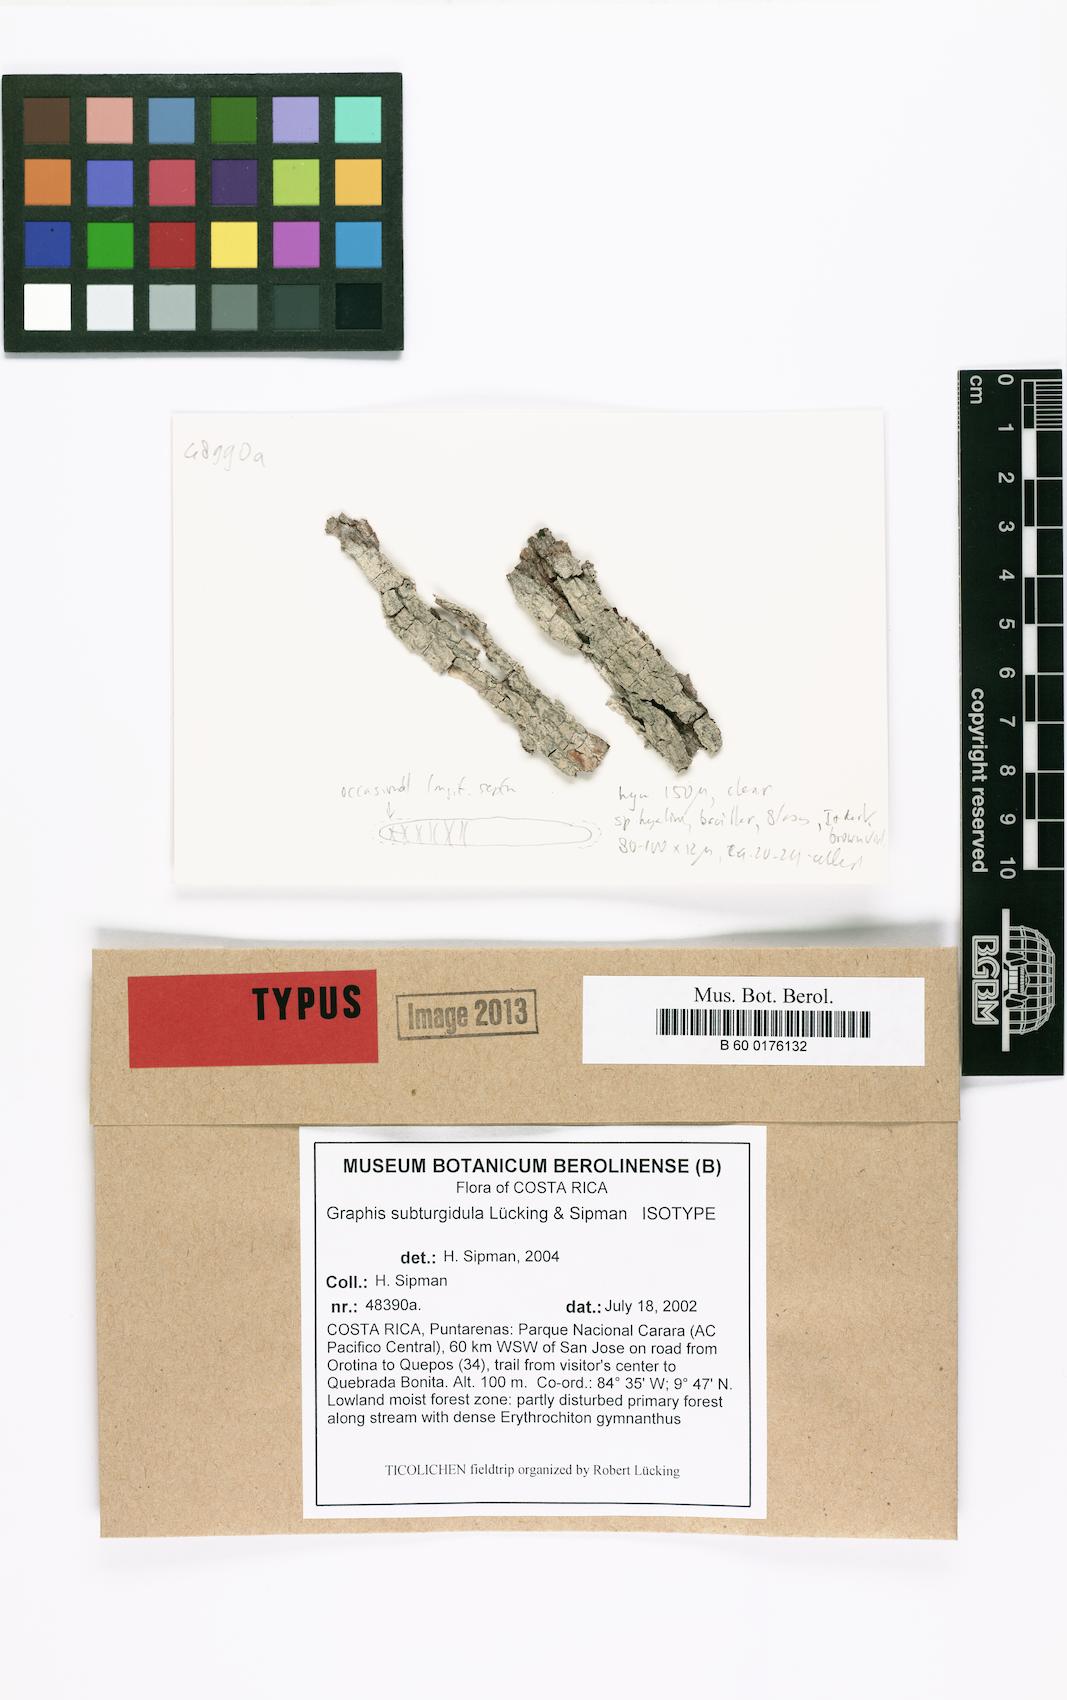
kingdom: Fungi
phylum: Ascomycota
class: Lecanoromycetes
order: Ostropales
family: Graphidaceae
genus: Allographa
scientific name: Allographa subturgidula
